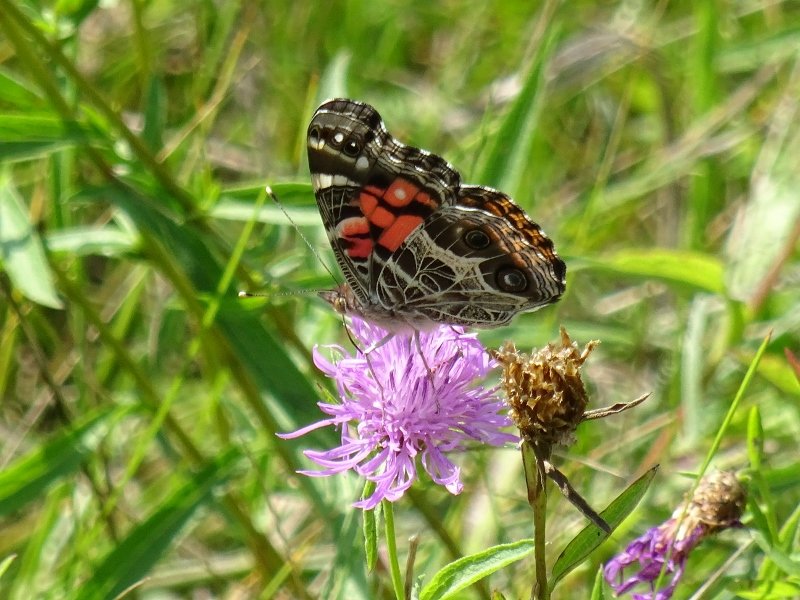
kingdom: Animalia
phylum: Arthropoda
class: Insecta
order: Lepidoptera
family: Nymphalidae
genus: Vanessa
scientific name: Vanessa virginiensis
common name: American Lady
